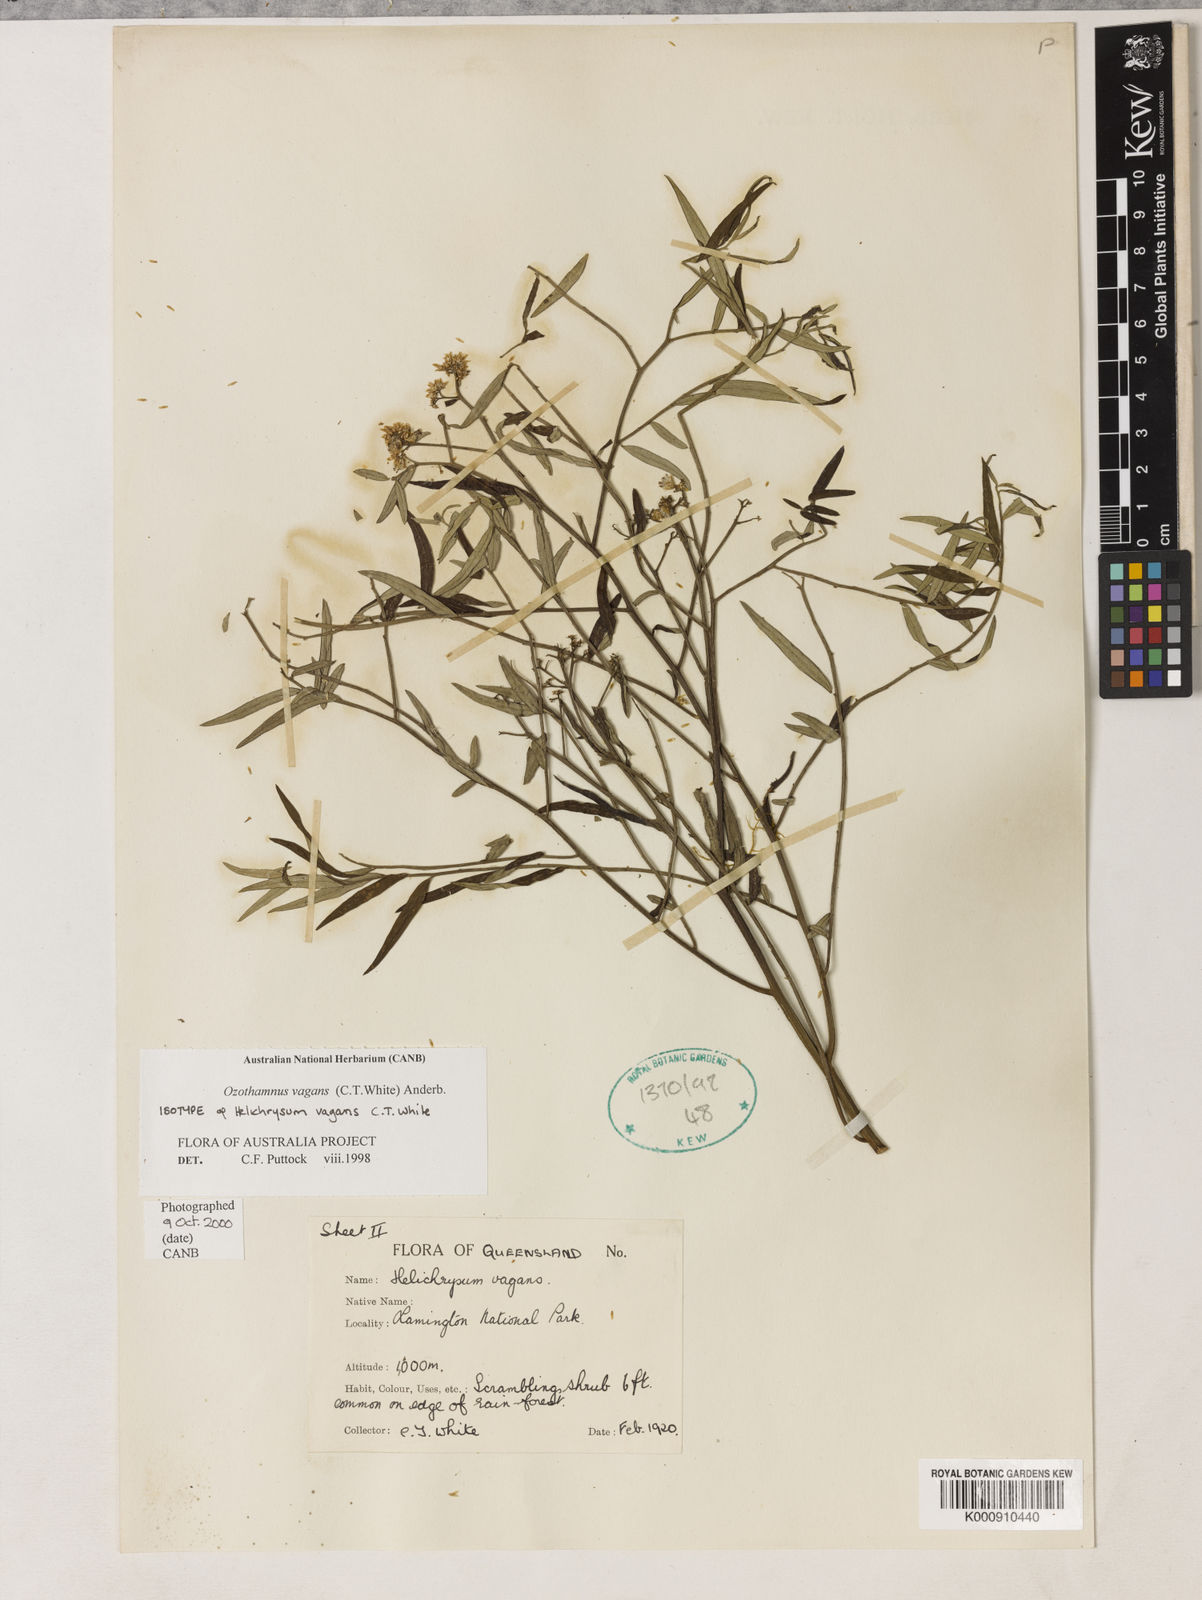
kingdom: Plantae
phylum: Tracheophyta
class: Magnoliopsida
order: Asterales
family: Asteraceae
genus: Ozothamnus
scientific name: Ozothamnus vagans
